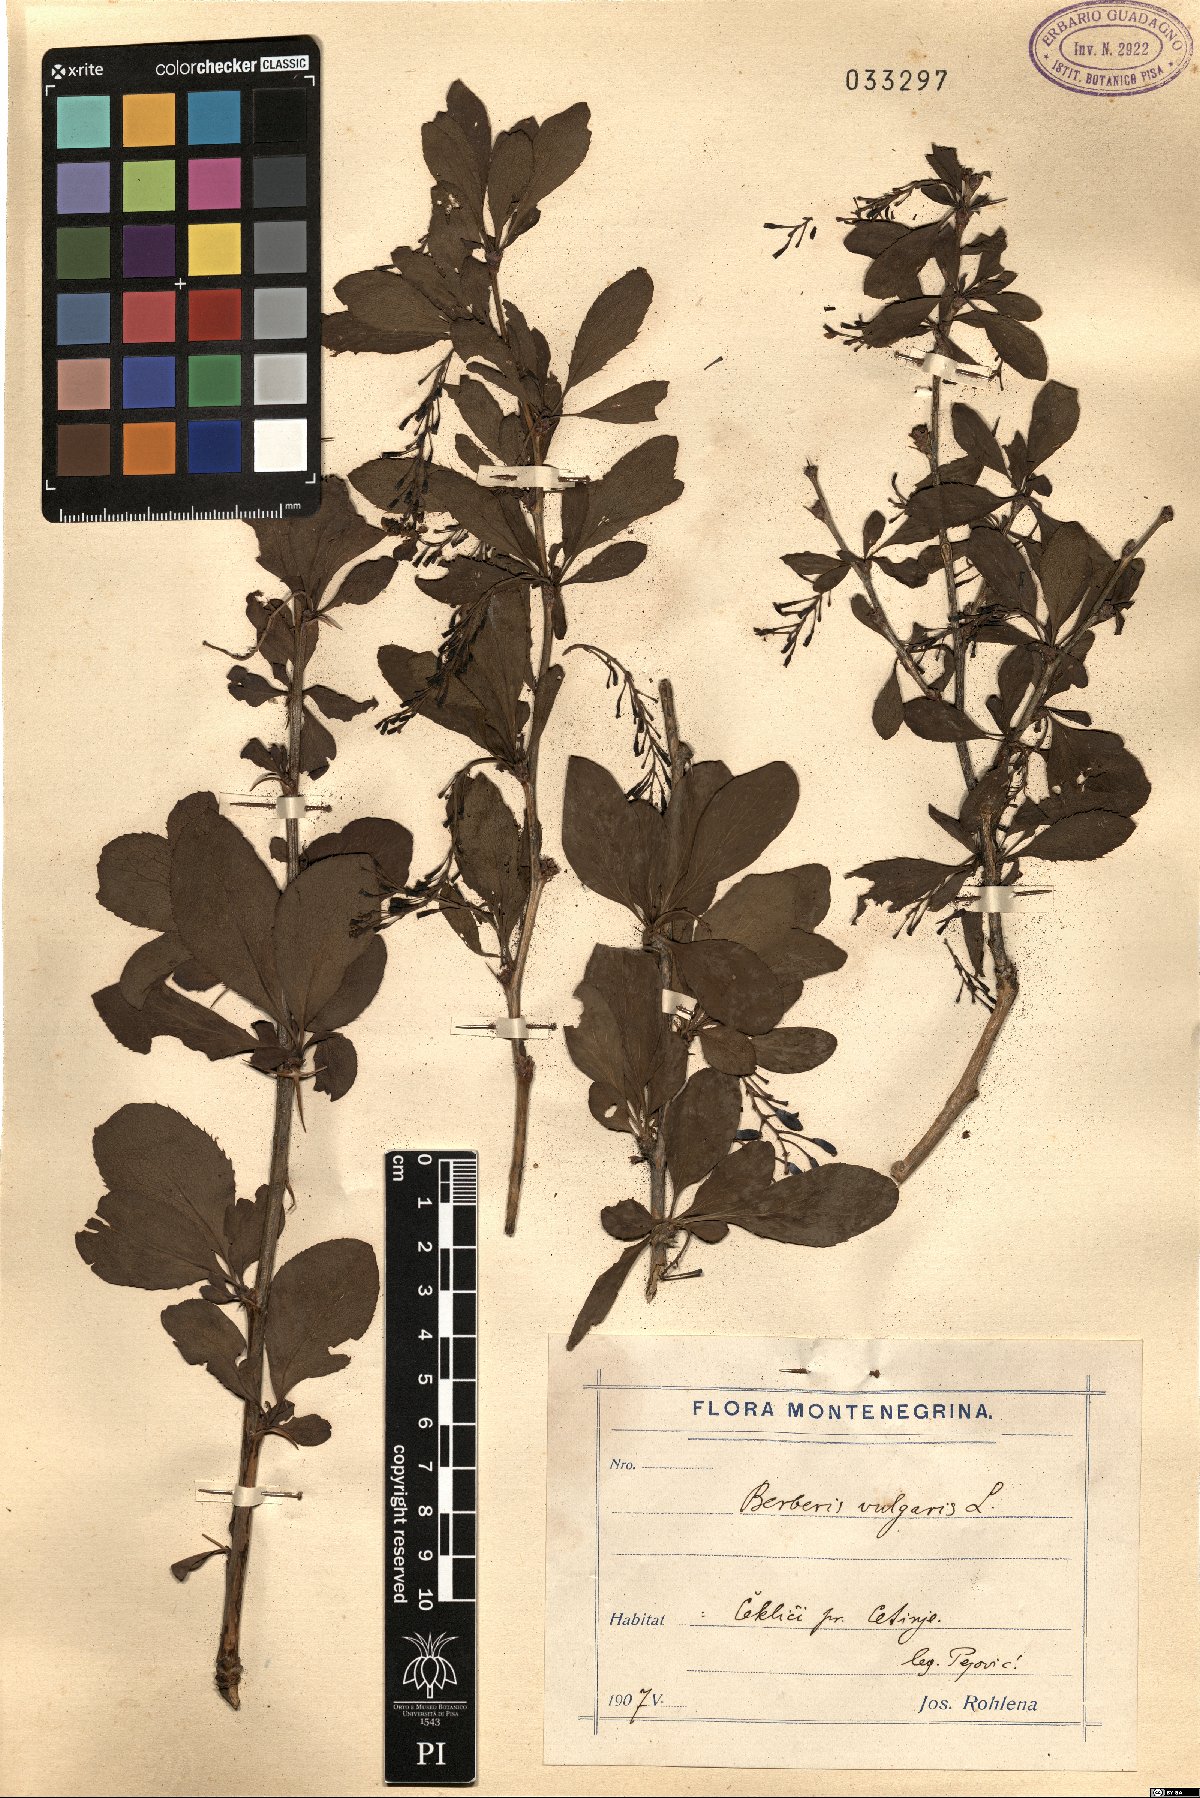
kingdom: Plantae
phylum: Tracheophyta
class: Magnoliopsida
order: Ranunculales
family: Berberidaceae
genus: Berberis
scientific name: Berberis vulgaris
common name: Barberry
